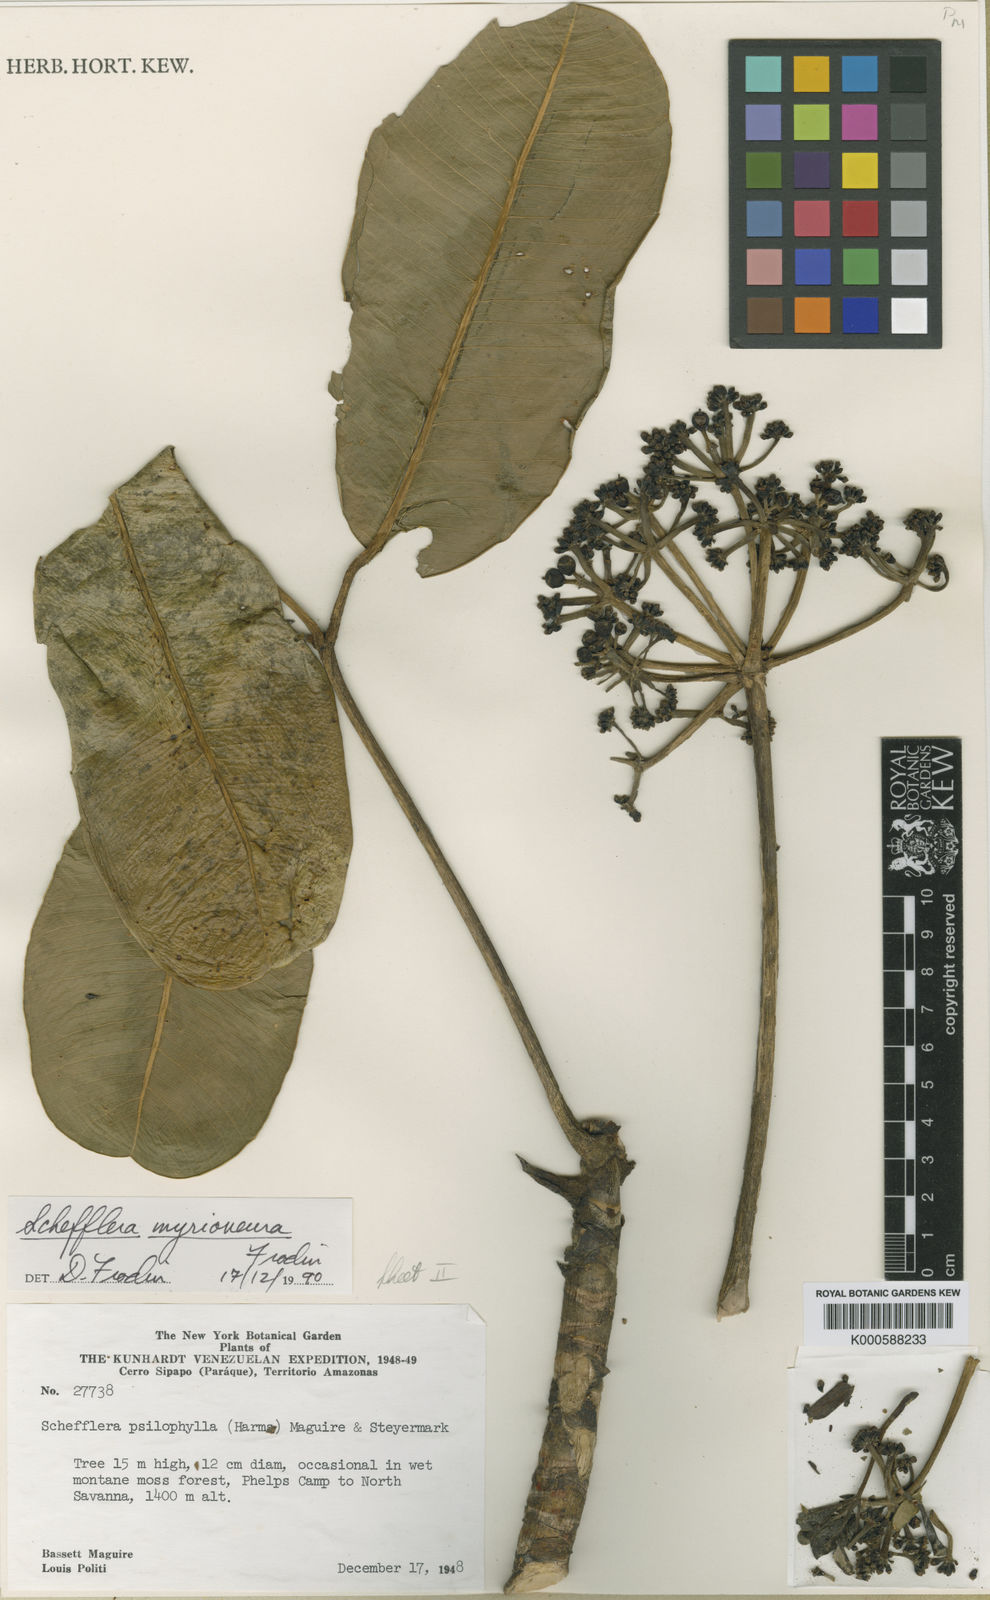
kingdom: Plantae
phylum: Tracheophyta
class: Magnoliopsida
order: Apiales
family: Araliaceae
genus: Crepinella
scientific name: Crepinella
